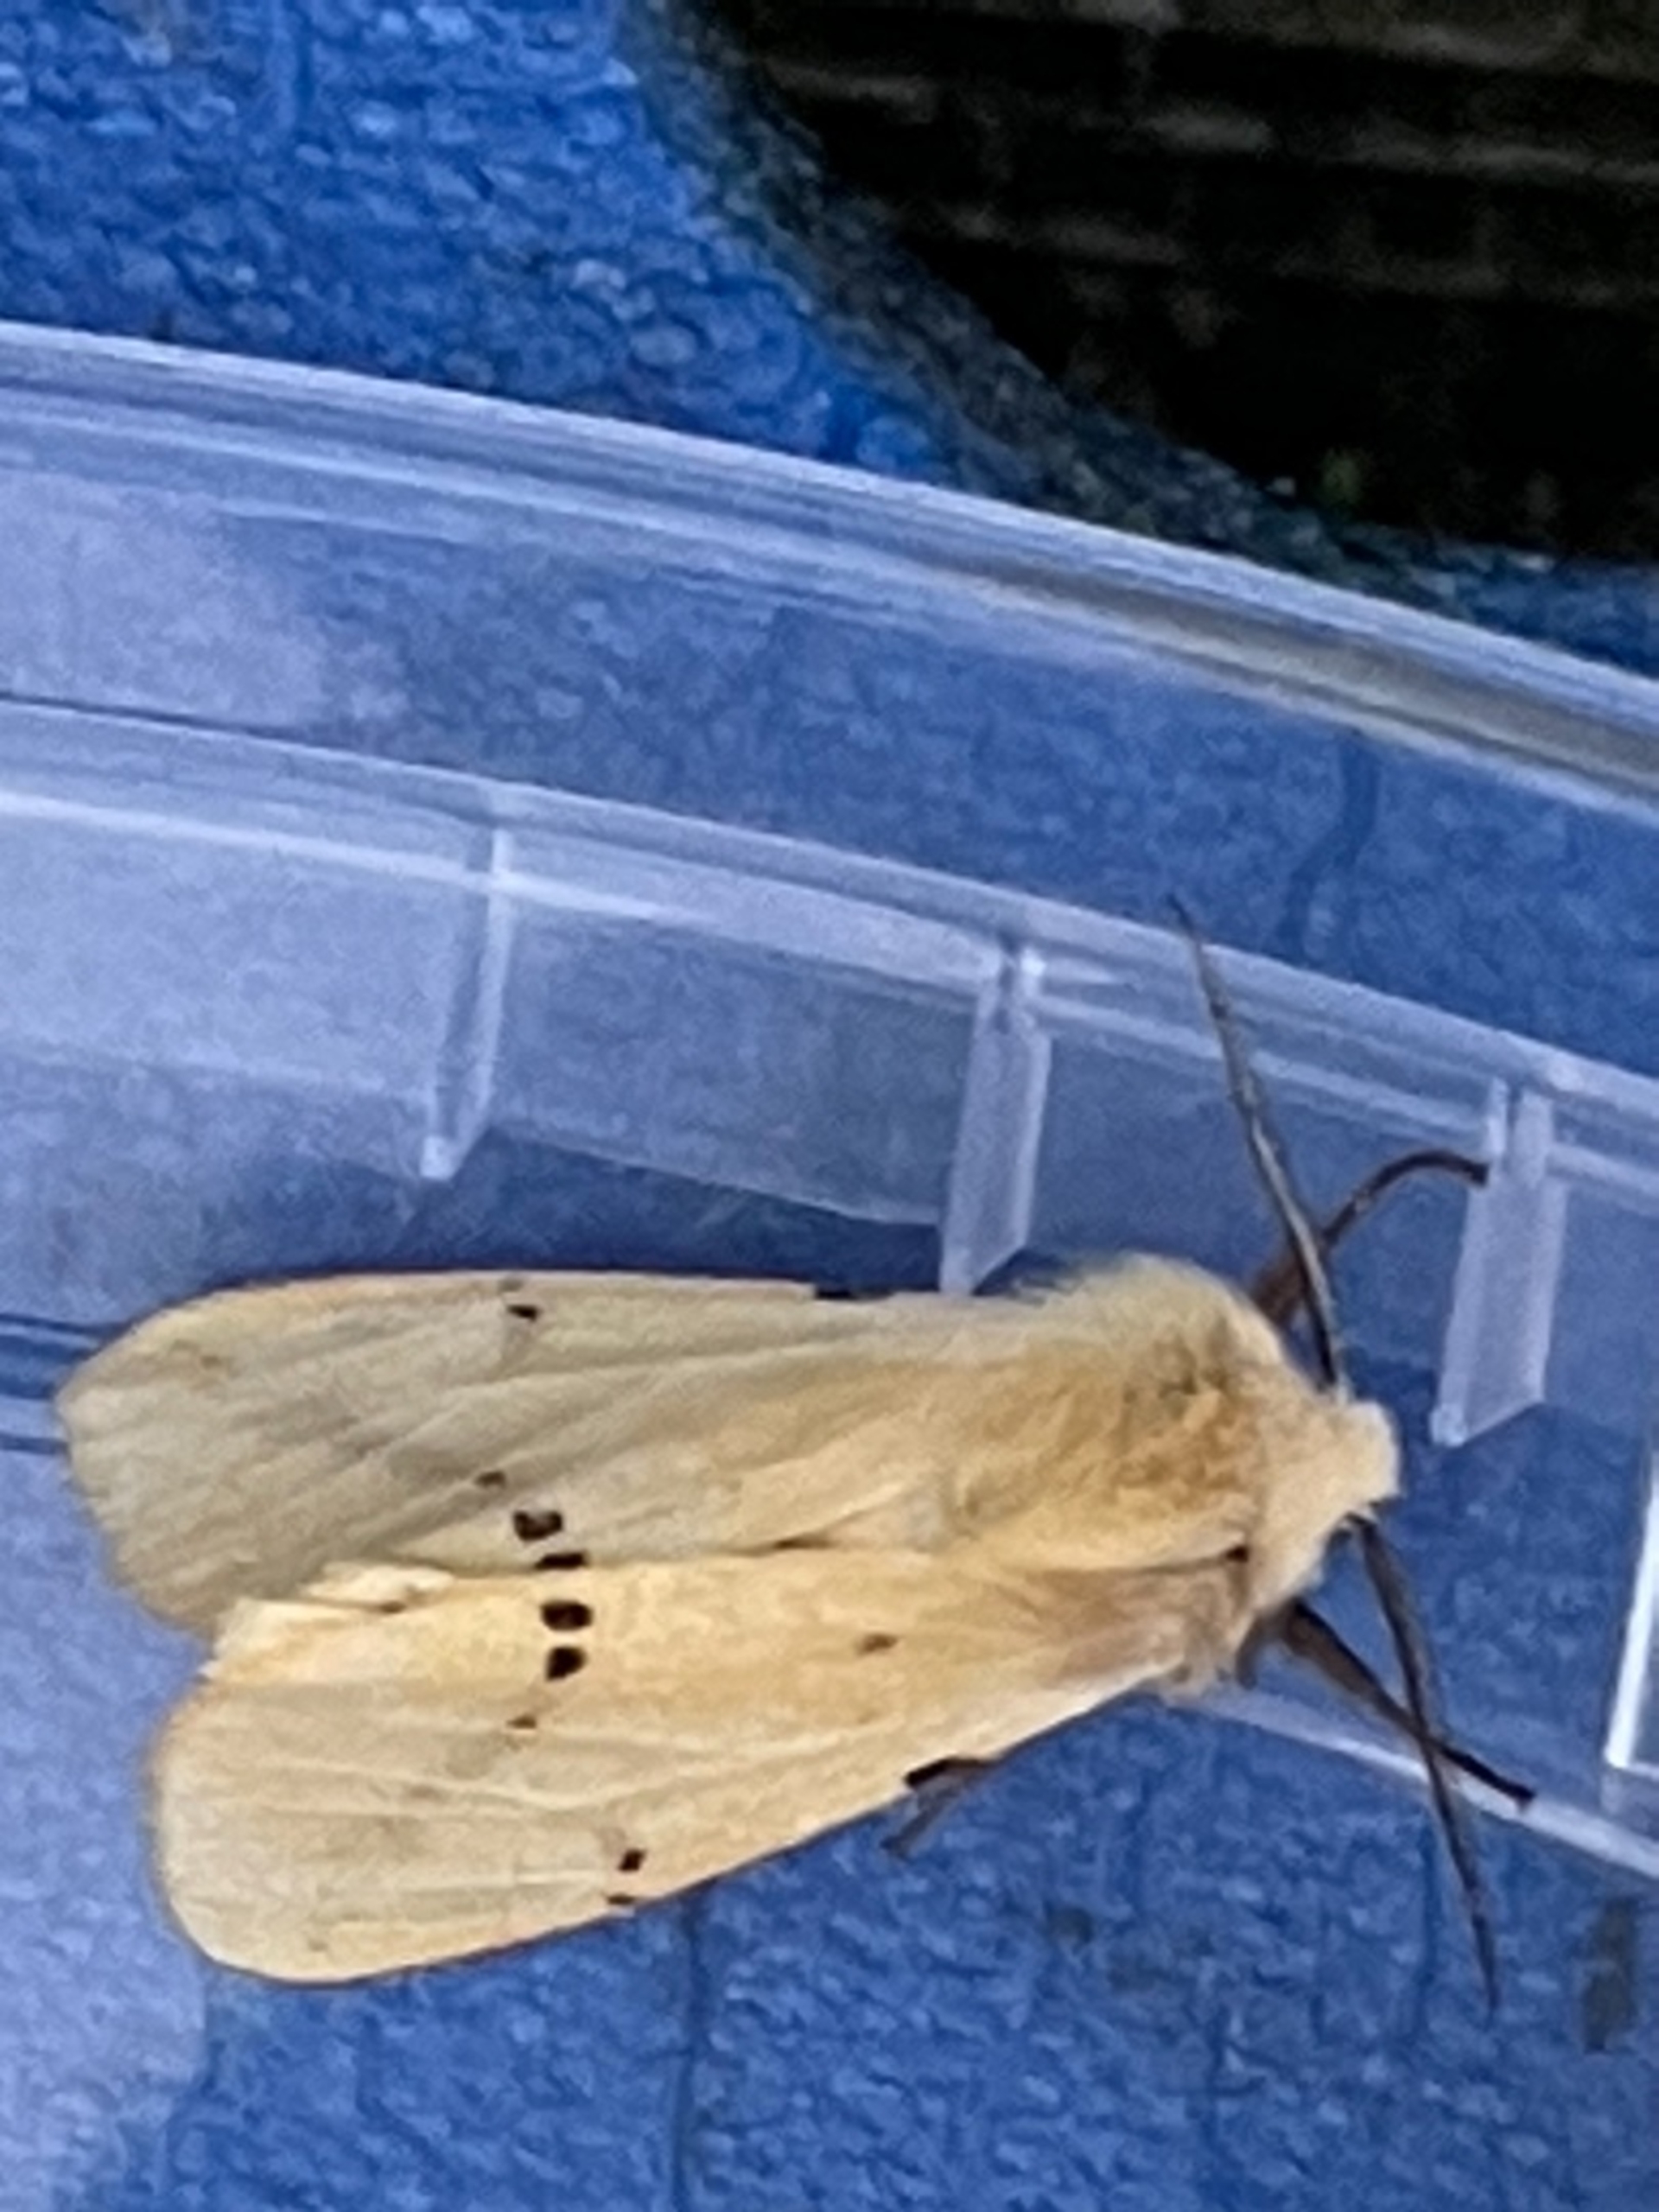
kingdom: Animalia
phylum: Arthropoda
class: Insecta
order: Lepidoptera
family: Erebidae
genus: Spilarctia
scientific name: Spilarctia lutea
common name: Gul tigerspinder
